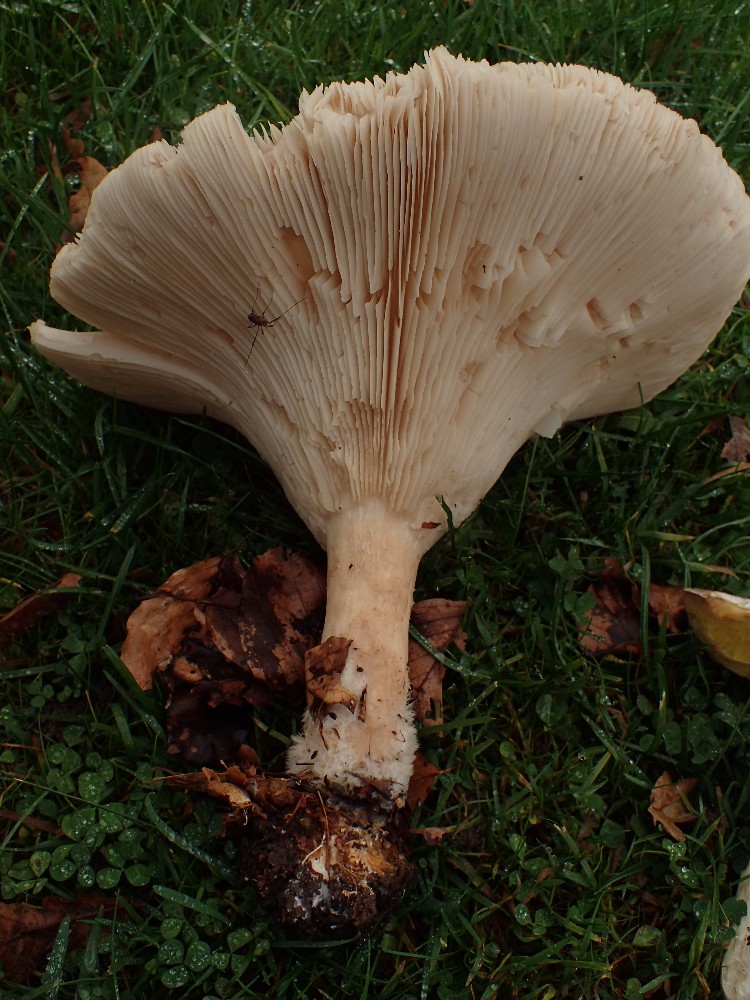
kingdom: Fungi
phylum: Basidiomycota
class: Agaricomycetes
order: Agaricales
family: Tricholomataceae
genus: Infundibulicybe
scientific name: Infundibulicybe geotropa
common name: stor tragthat
